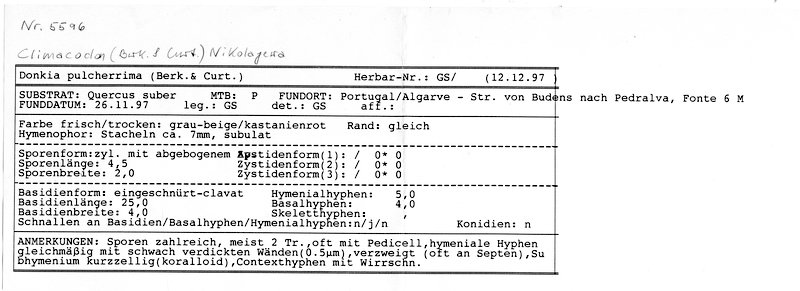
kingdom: Fungi
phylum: Basidiomycota
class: Agaricomycetes
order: Polyporales
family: Meruliaceae
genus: Climacodon
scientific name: Climacodon pulcherrimus
